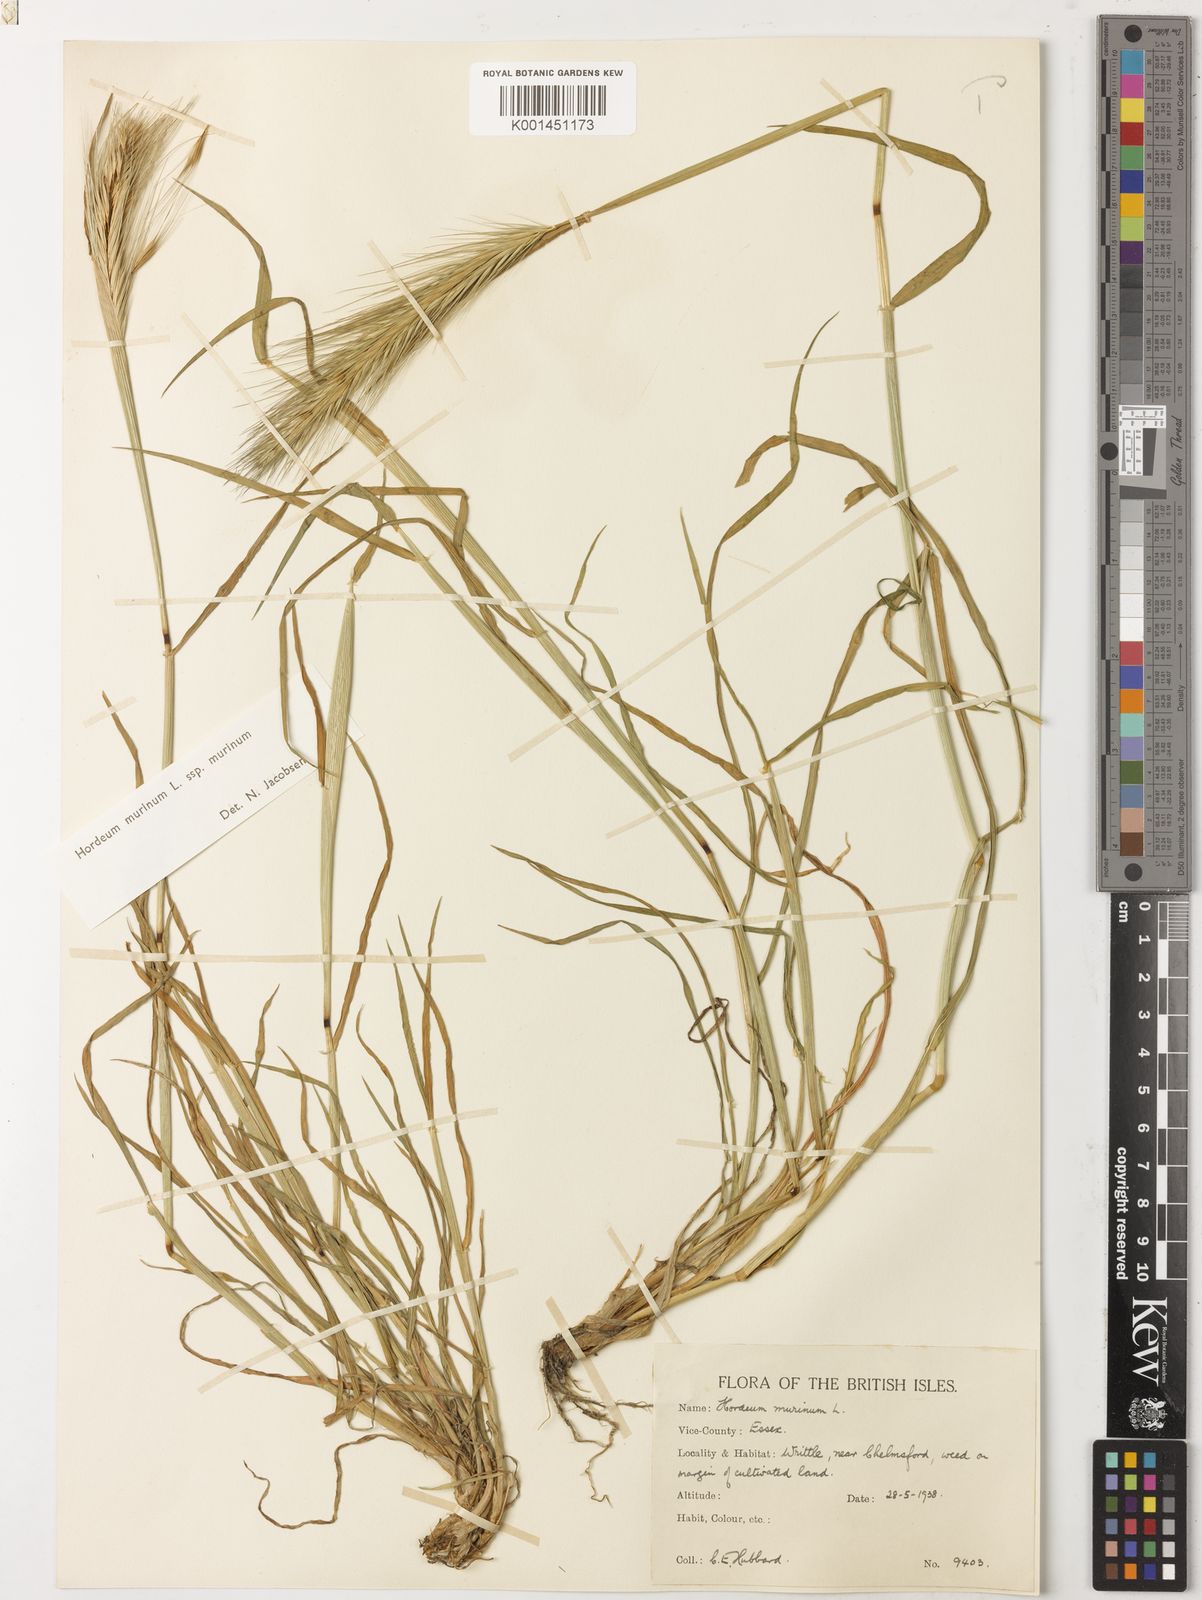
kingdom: Plantae
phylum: Tracheophyta
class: Liliopsida
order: Poales
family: Poaceae
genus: Hordeum
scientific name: Hordeum murinum
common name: Wall barley
